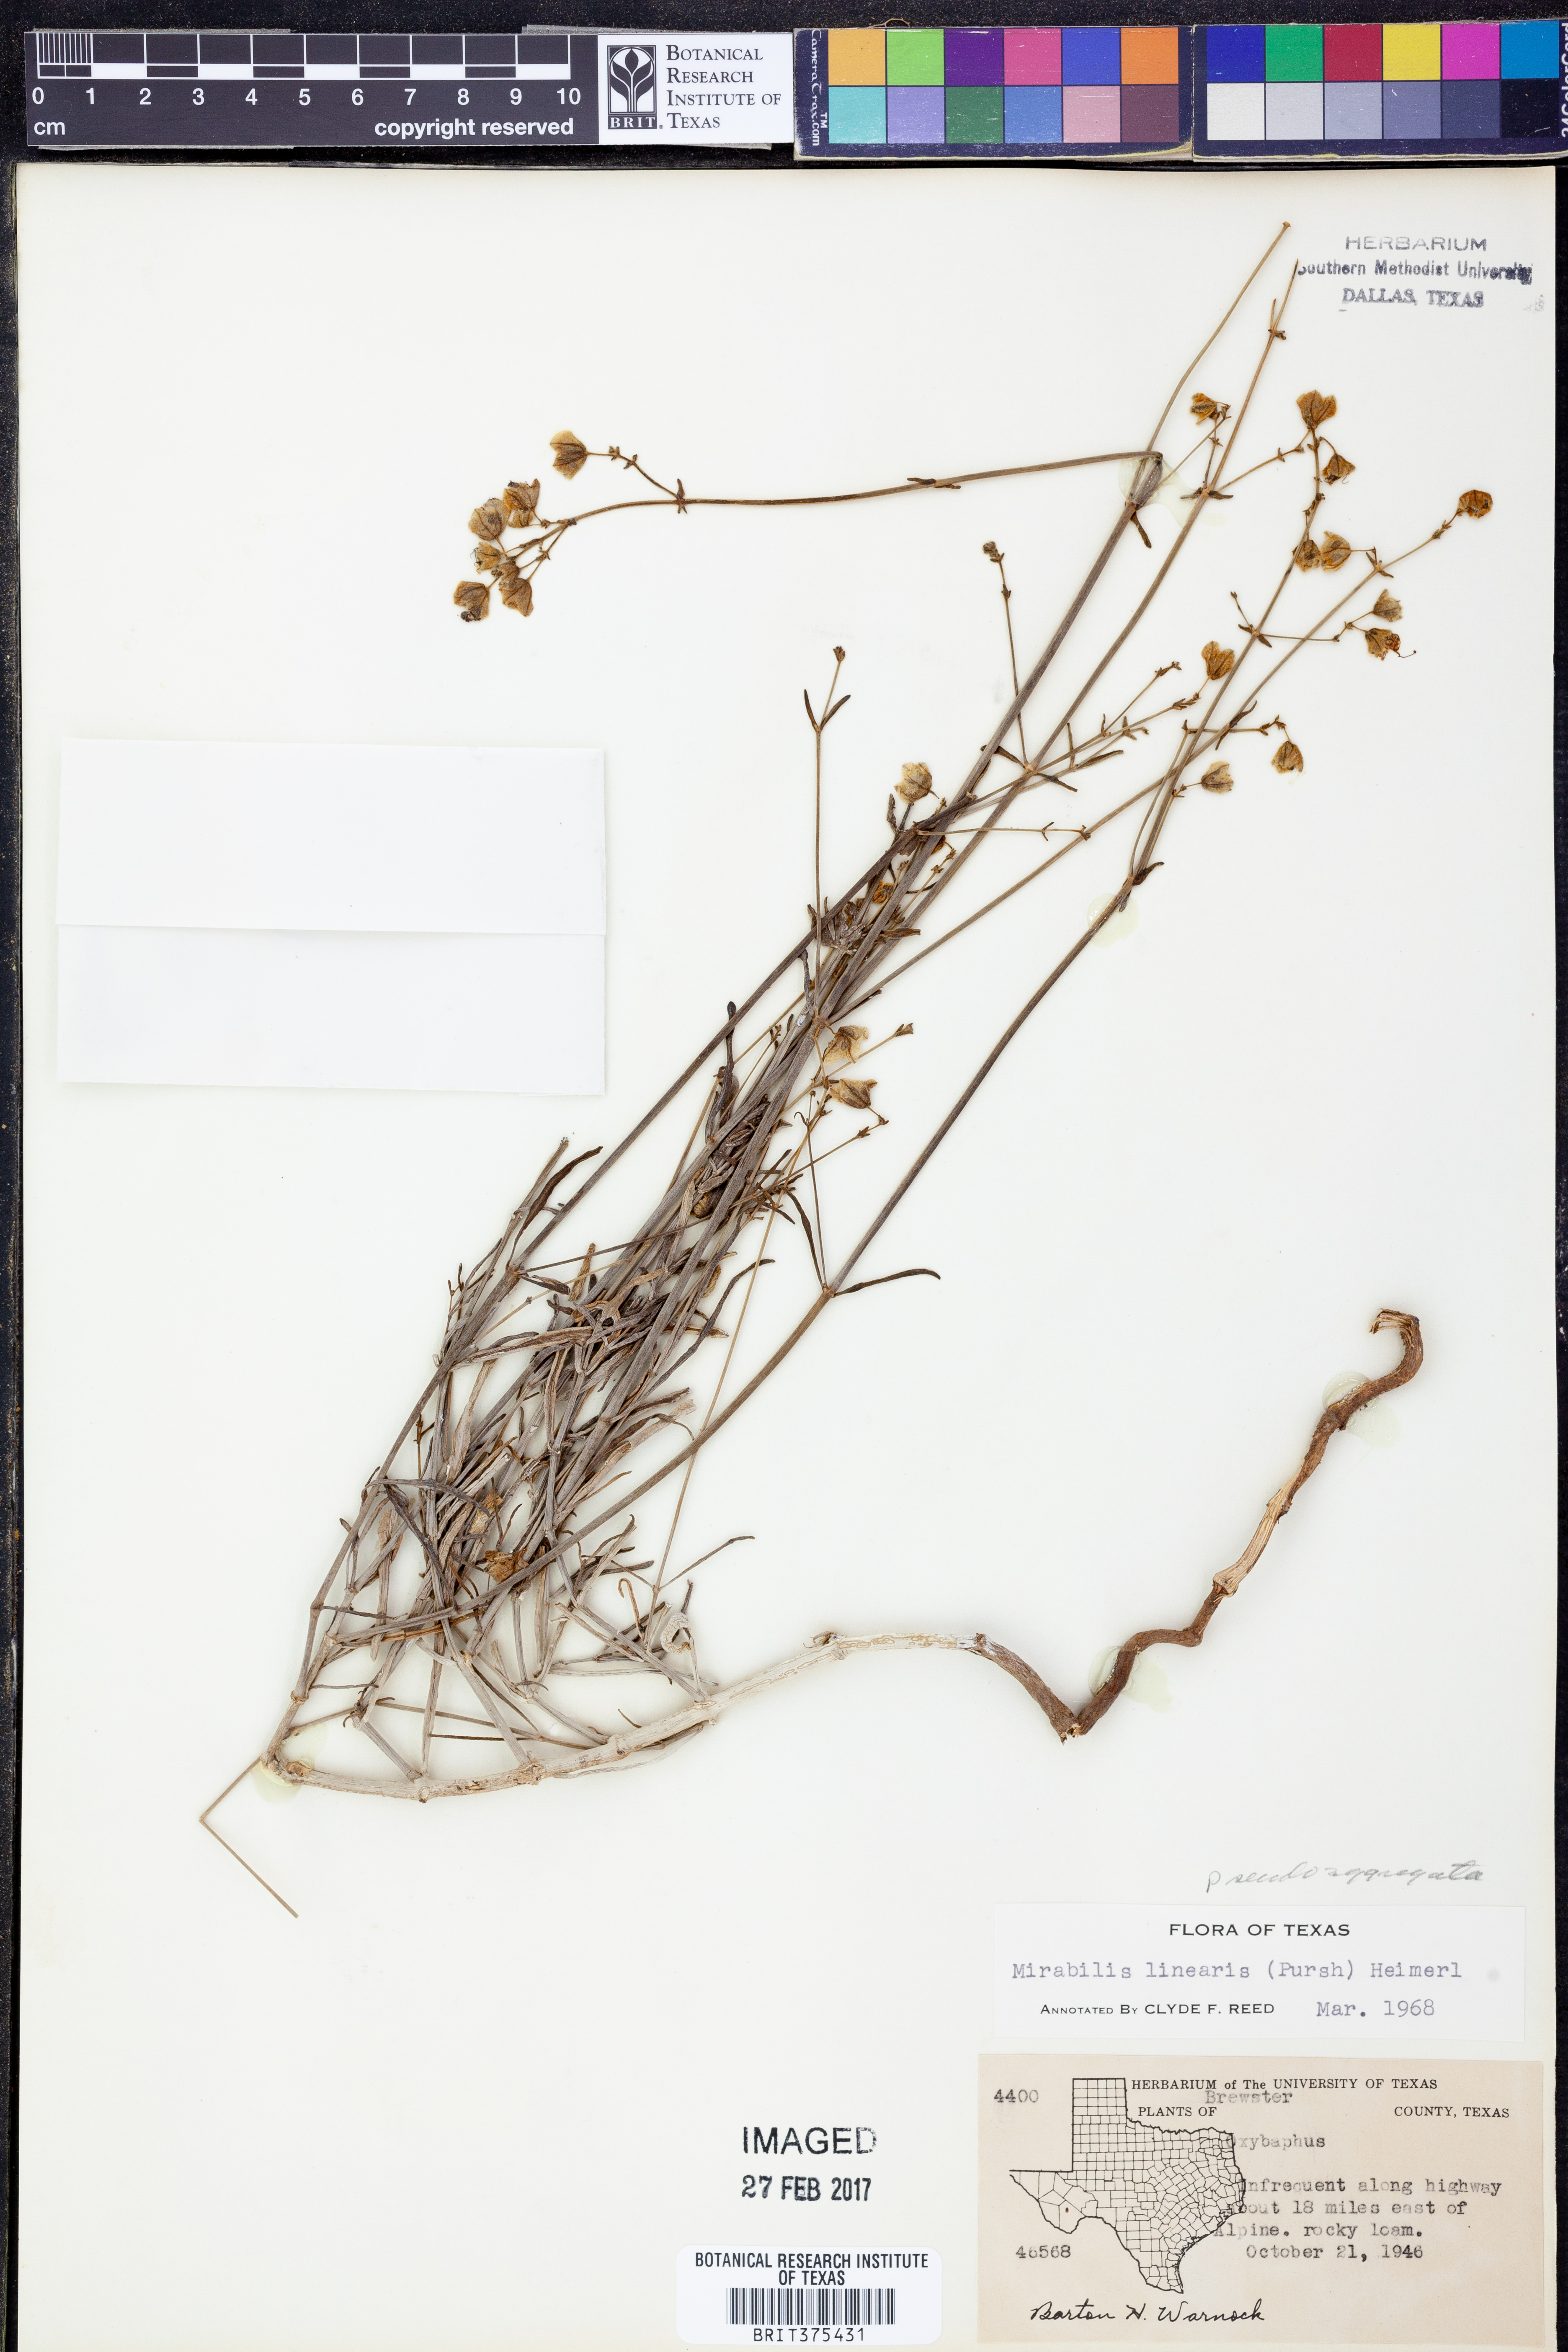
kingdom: Plantae
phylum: Tracheophyta
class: Magnoliopsida
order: Caryophyllales
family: Nyctaginaceae
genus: Mirabilis
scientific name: Mirabilis linearis
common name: Linear-leaved four-o'clock
